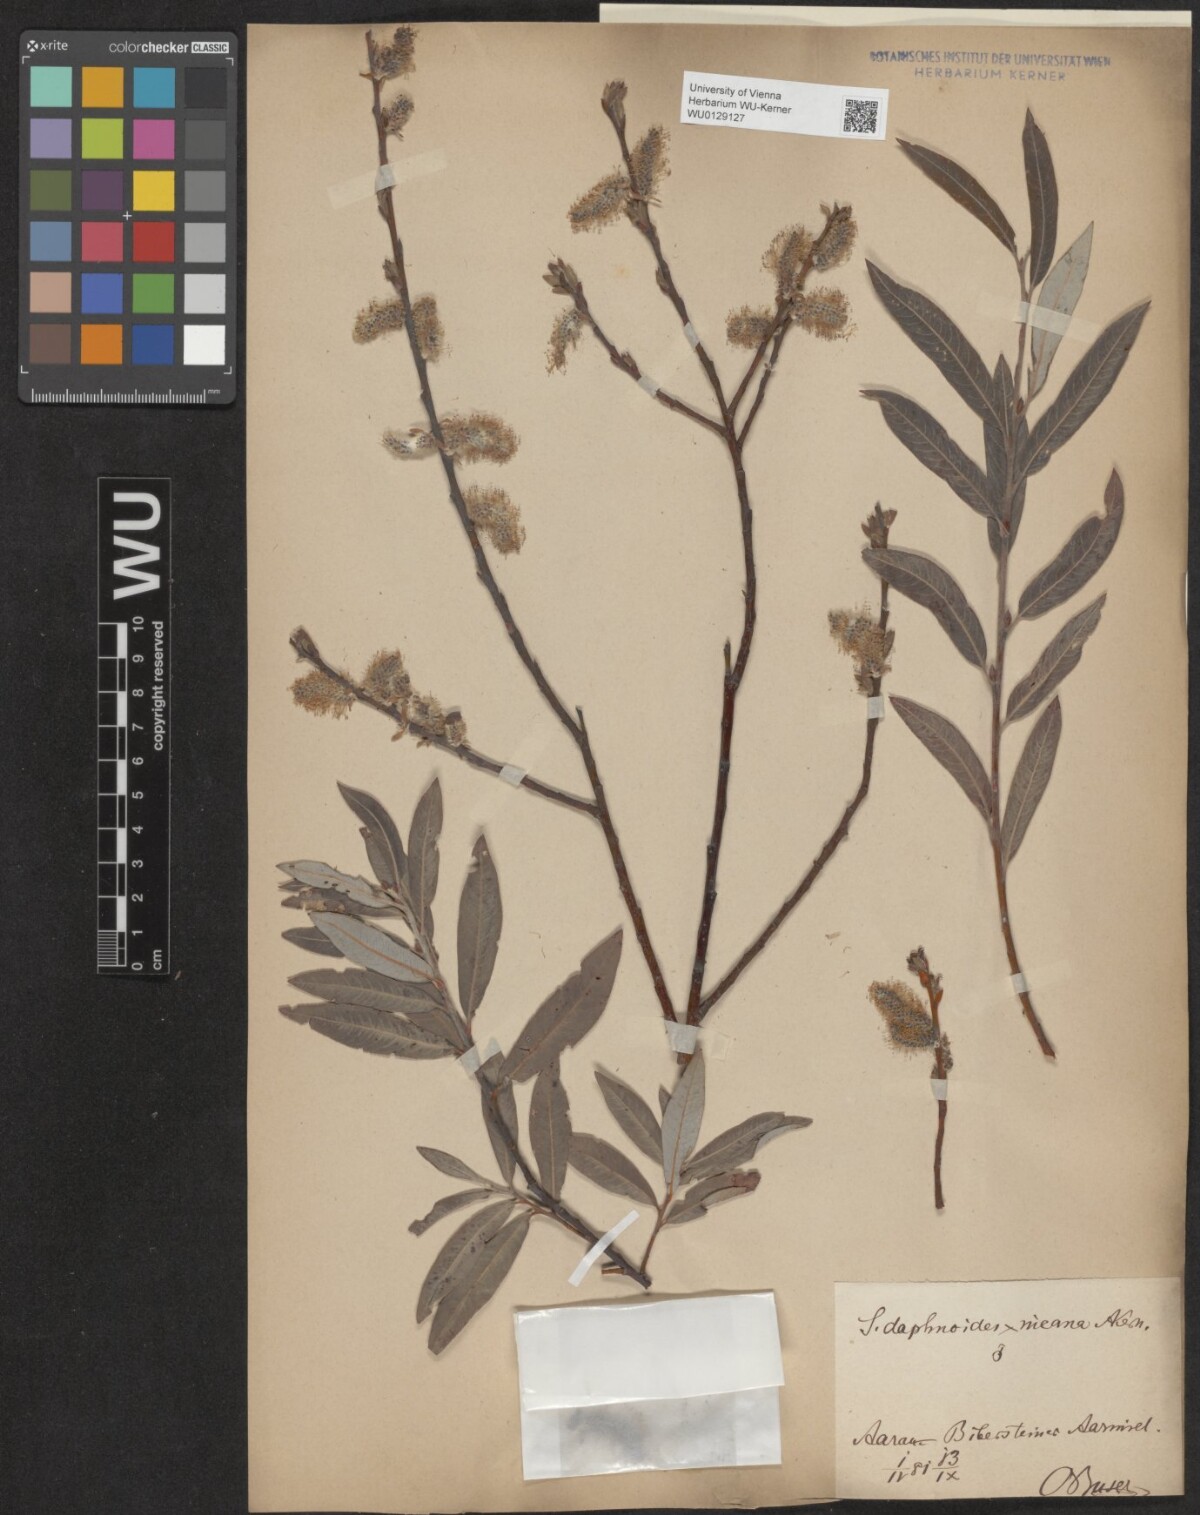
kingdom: Plantae
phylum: Tracheophyta
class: Magnoliopsida
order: Malpighiales
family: Salicaceae
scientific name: Salicaceae
